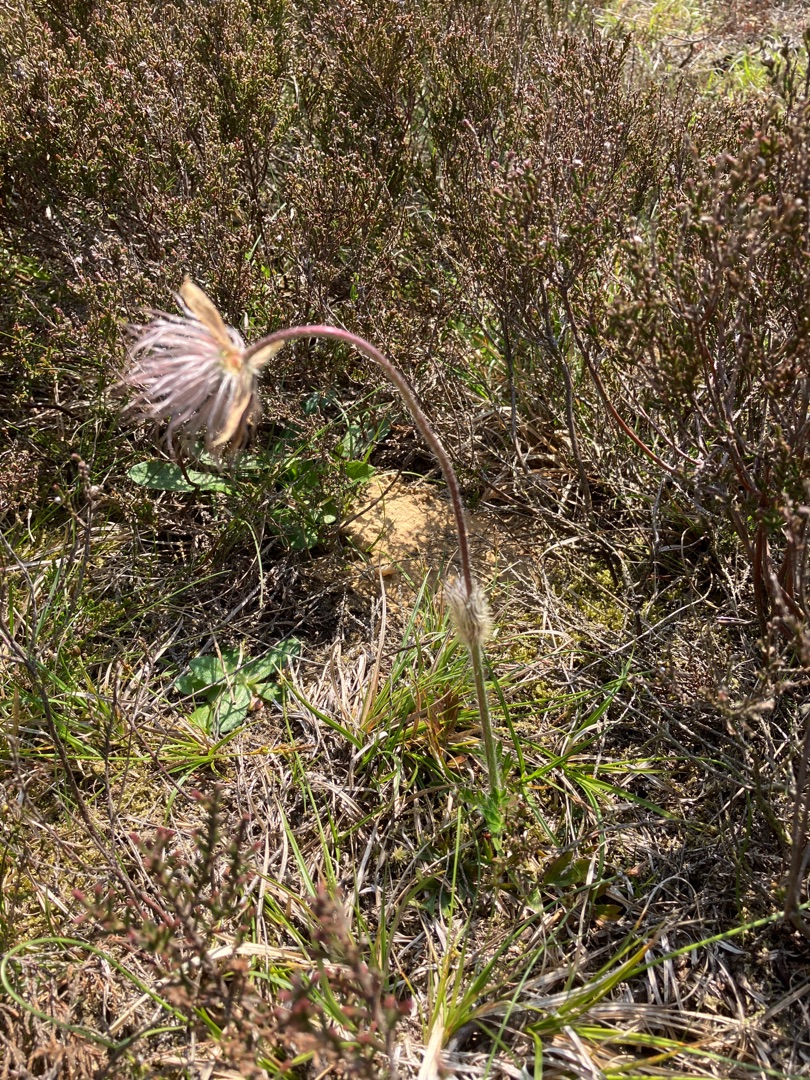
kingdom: Plantae
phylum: Tracheophyta
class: Magnoliopsida
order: Ranunculales
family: Ranunculaceae
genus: Pulsatilla
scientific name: Pulsatilla vernalis
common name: Vår-kobjælde
